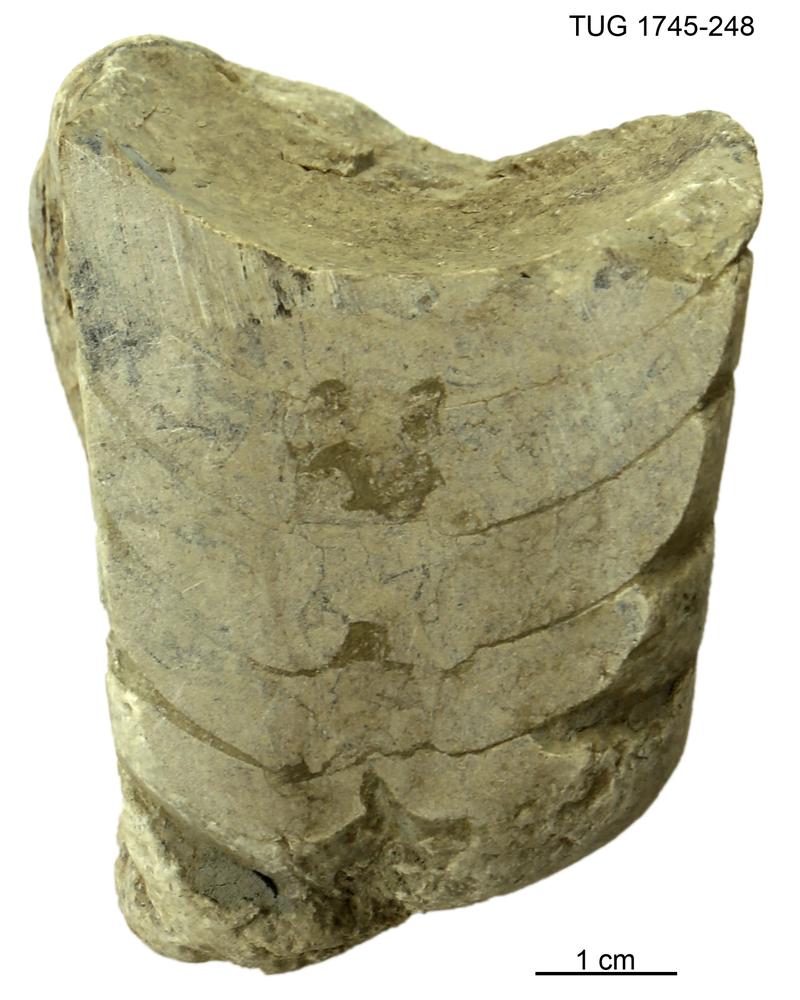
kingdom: Animalia
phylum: Mollusca
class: Cephalopoda
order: Orthocerida
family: Proteoceratidae
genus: Ephippiorthoceras
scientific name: Ephippiorthoceras
